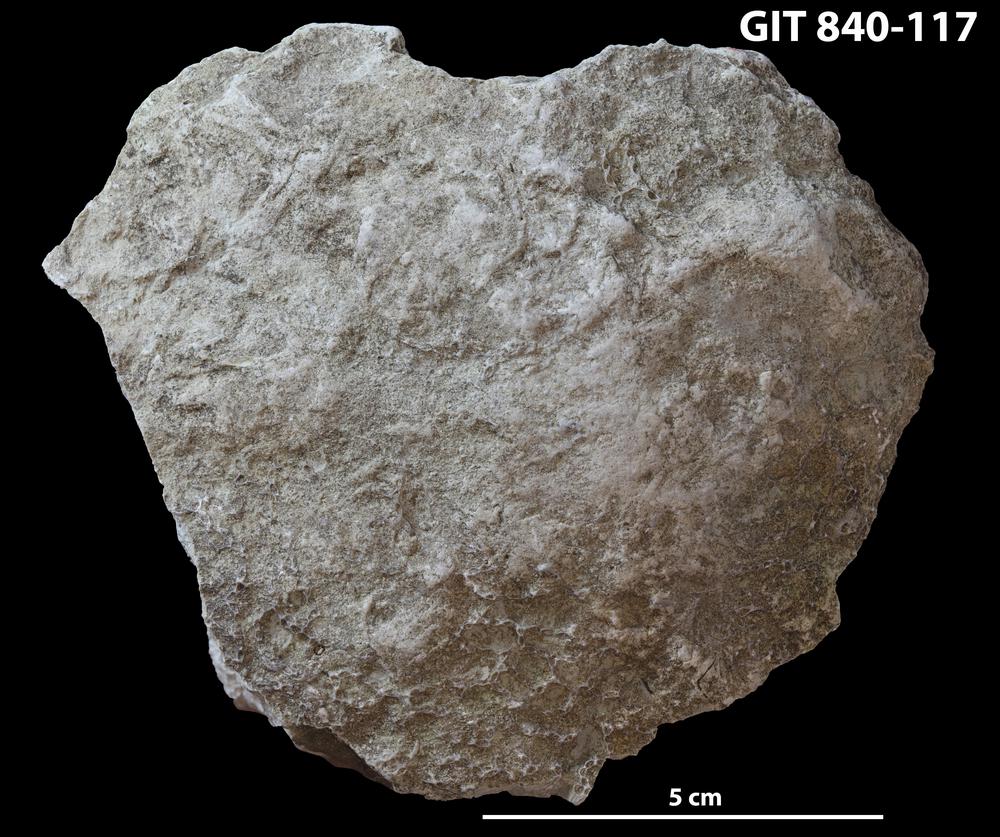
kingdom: Animalia
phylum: Cnidaria
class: Anthozoa
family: Cateniporidae
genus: Catenipora
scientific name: Catenipora
